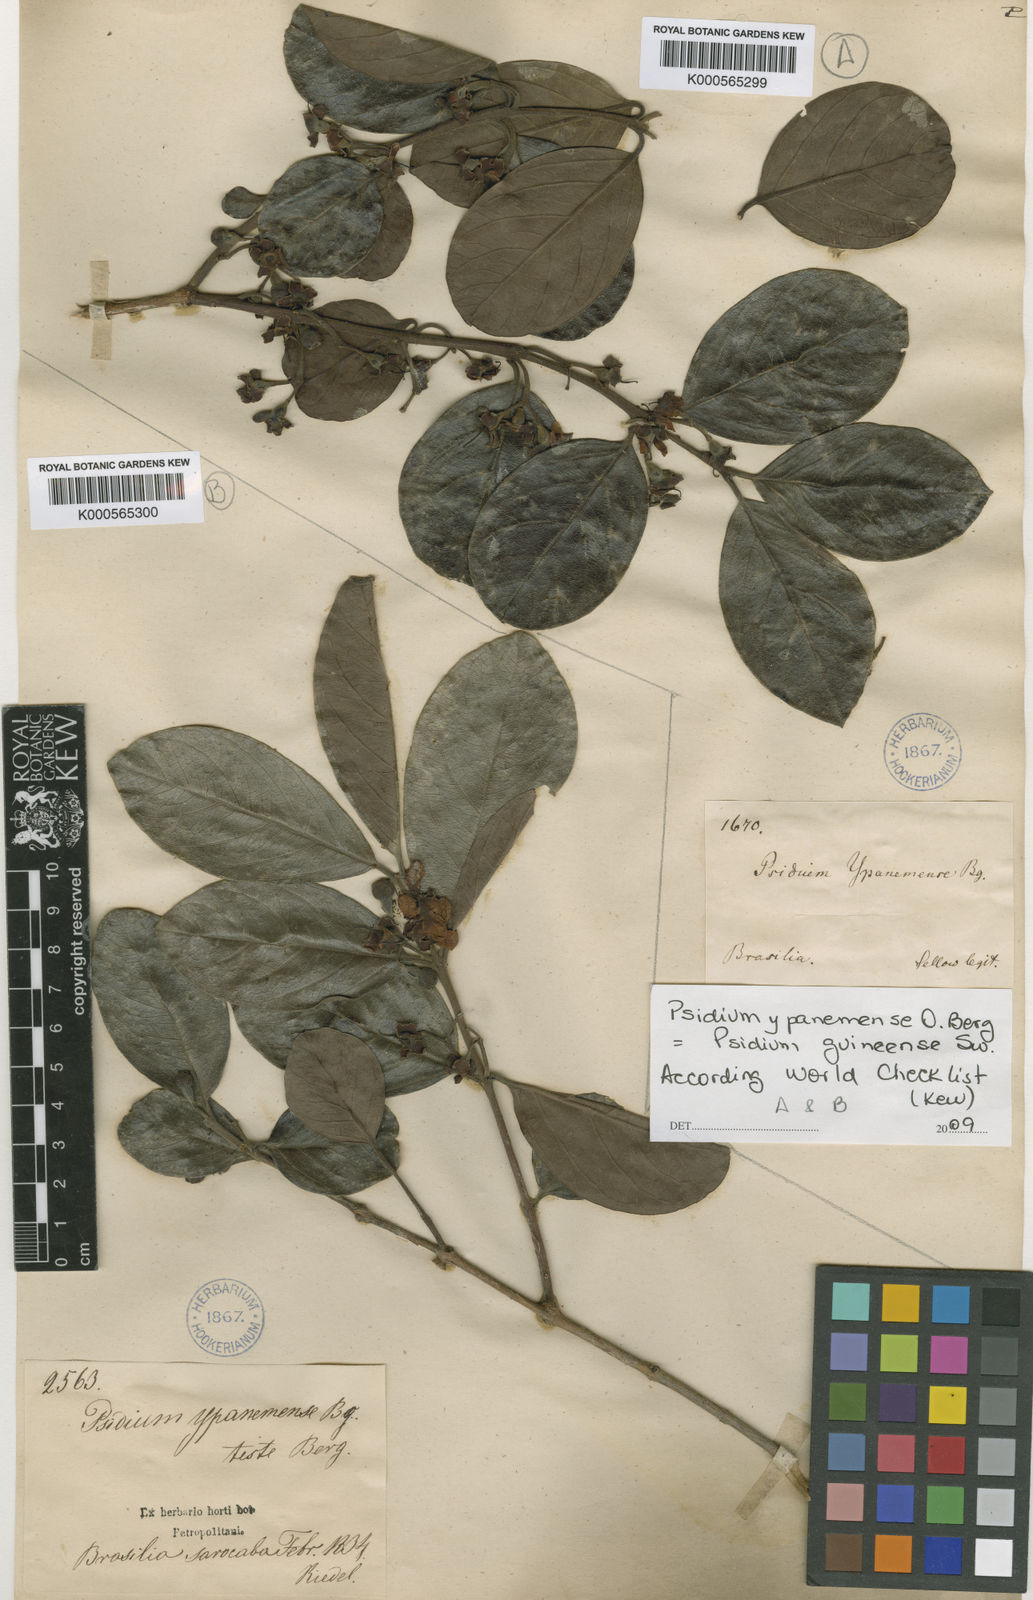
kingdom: Plantae
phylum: Tracheophyta
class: Magnoliopsida
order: Myrtales
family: Myrtaceae
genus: Psidium
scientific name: Psidium guineense
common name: Brazilian guava
